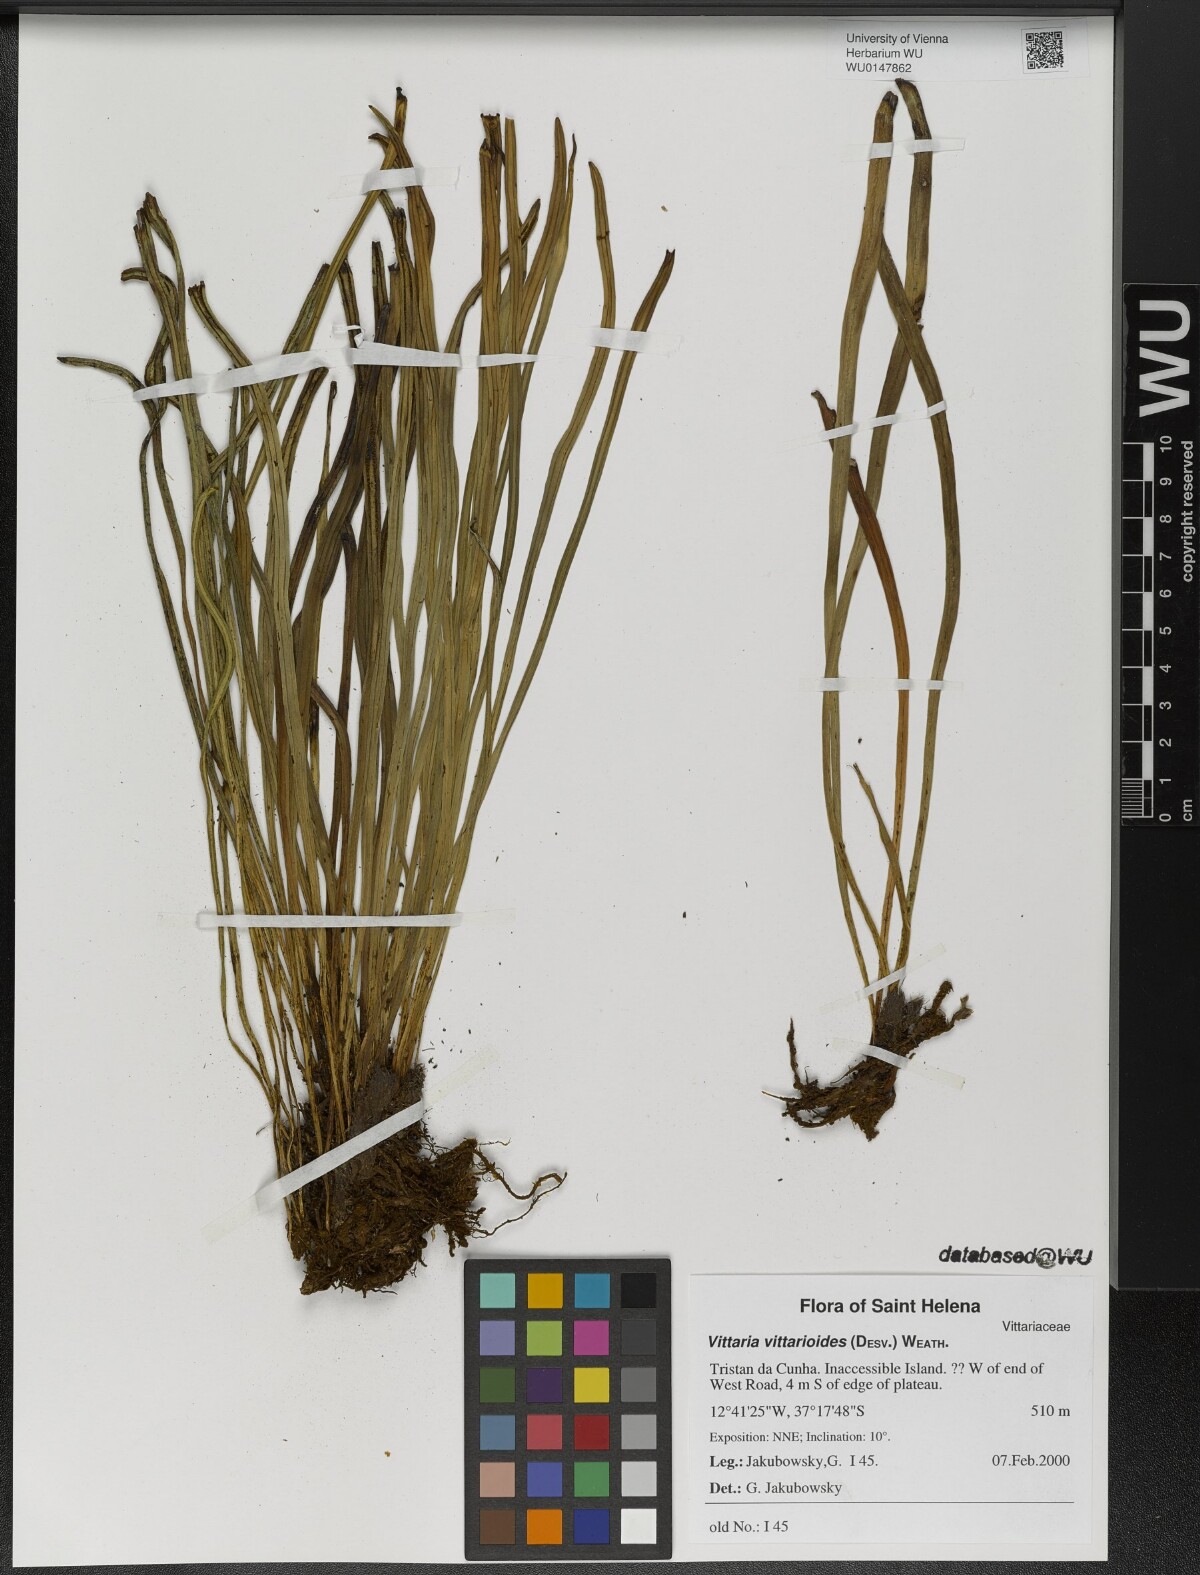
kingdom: Plantae
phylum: Tracheophyta
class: Polypodiopsida
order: Polypodiales
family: Pteridaceae
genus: Radiovittaria
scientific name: Radiovittaria ruiziana
